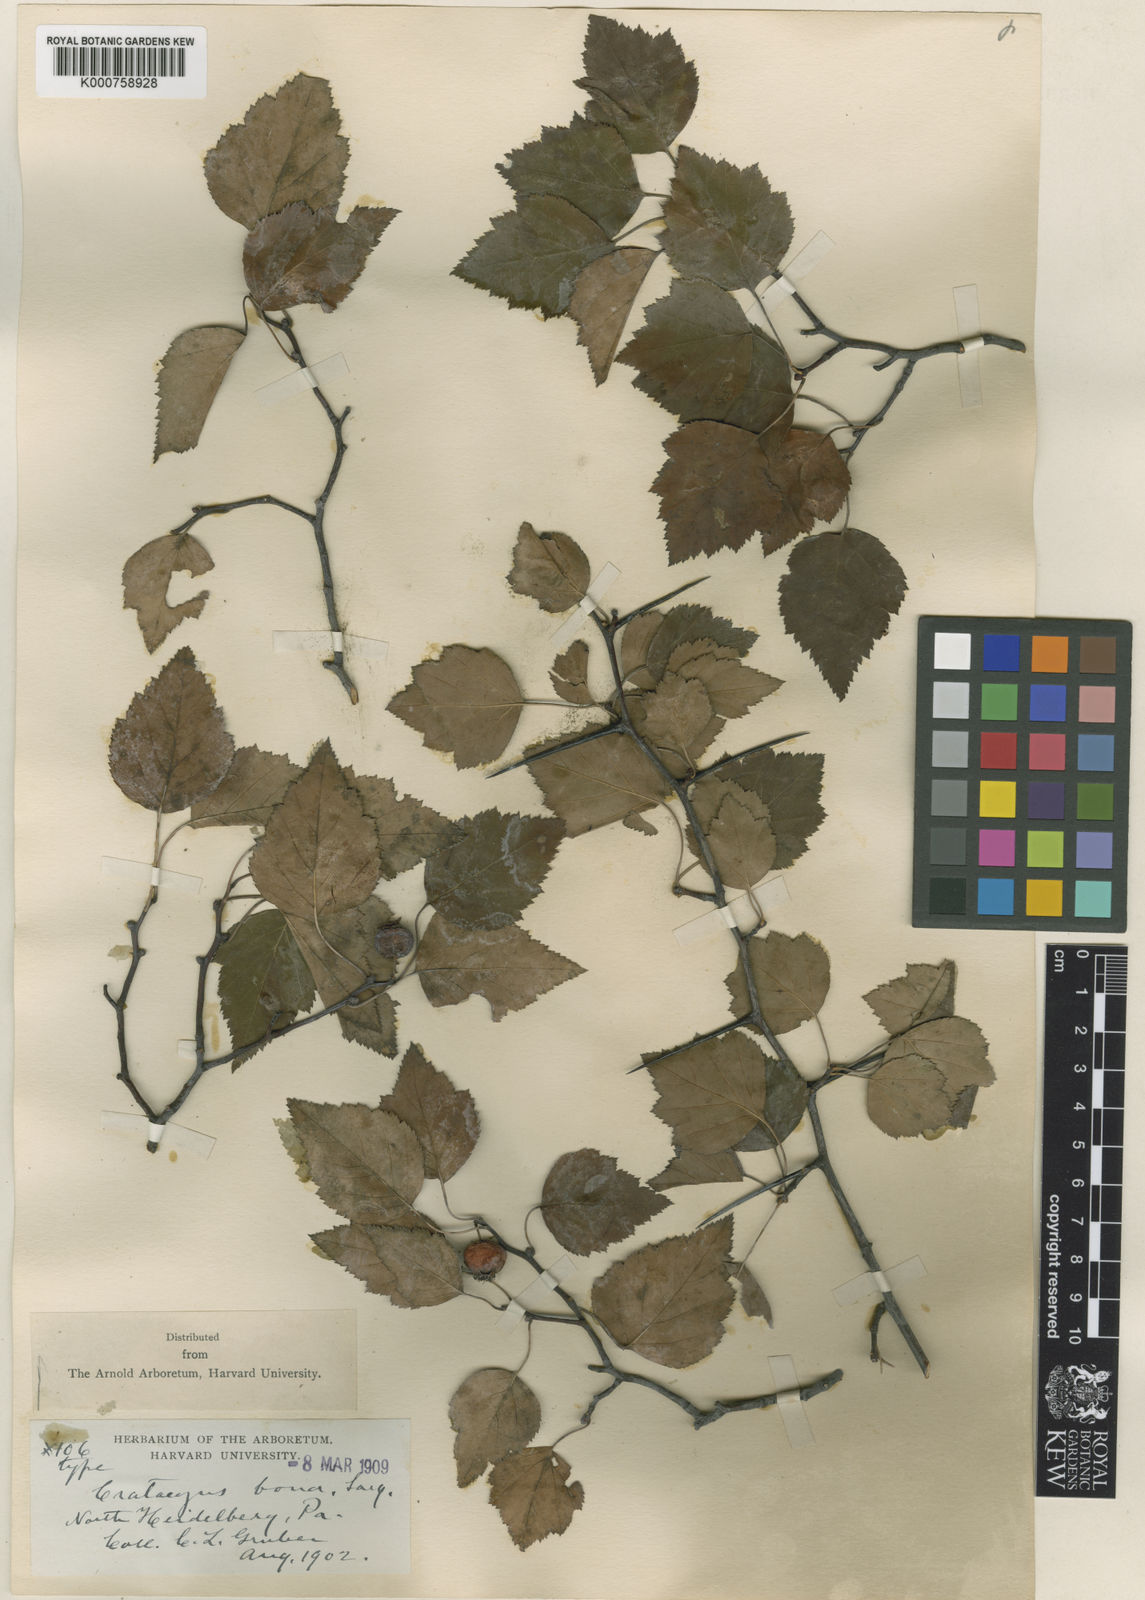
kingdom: Plantae
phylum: Tracheophyta
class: Magnoliopsida
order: Rosales
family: Rosaceae
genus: Crataegus
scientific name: Crataegus gattingeri
